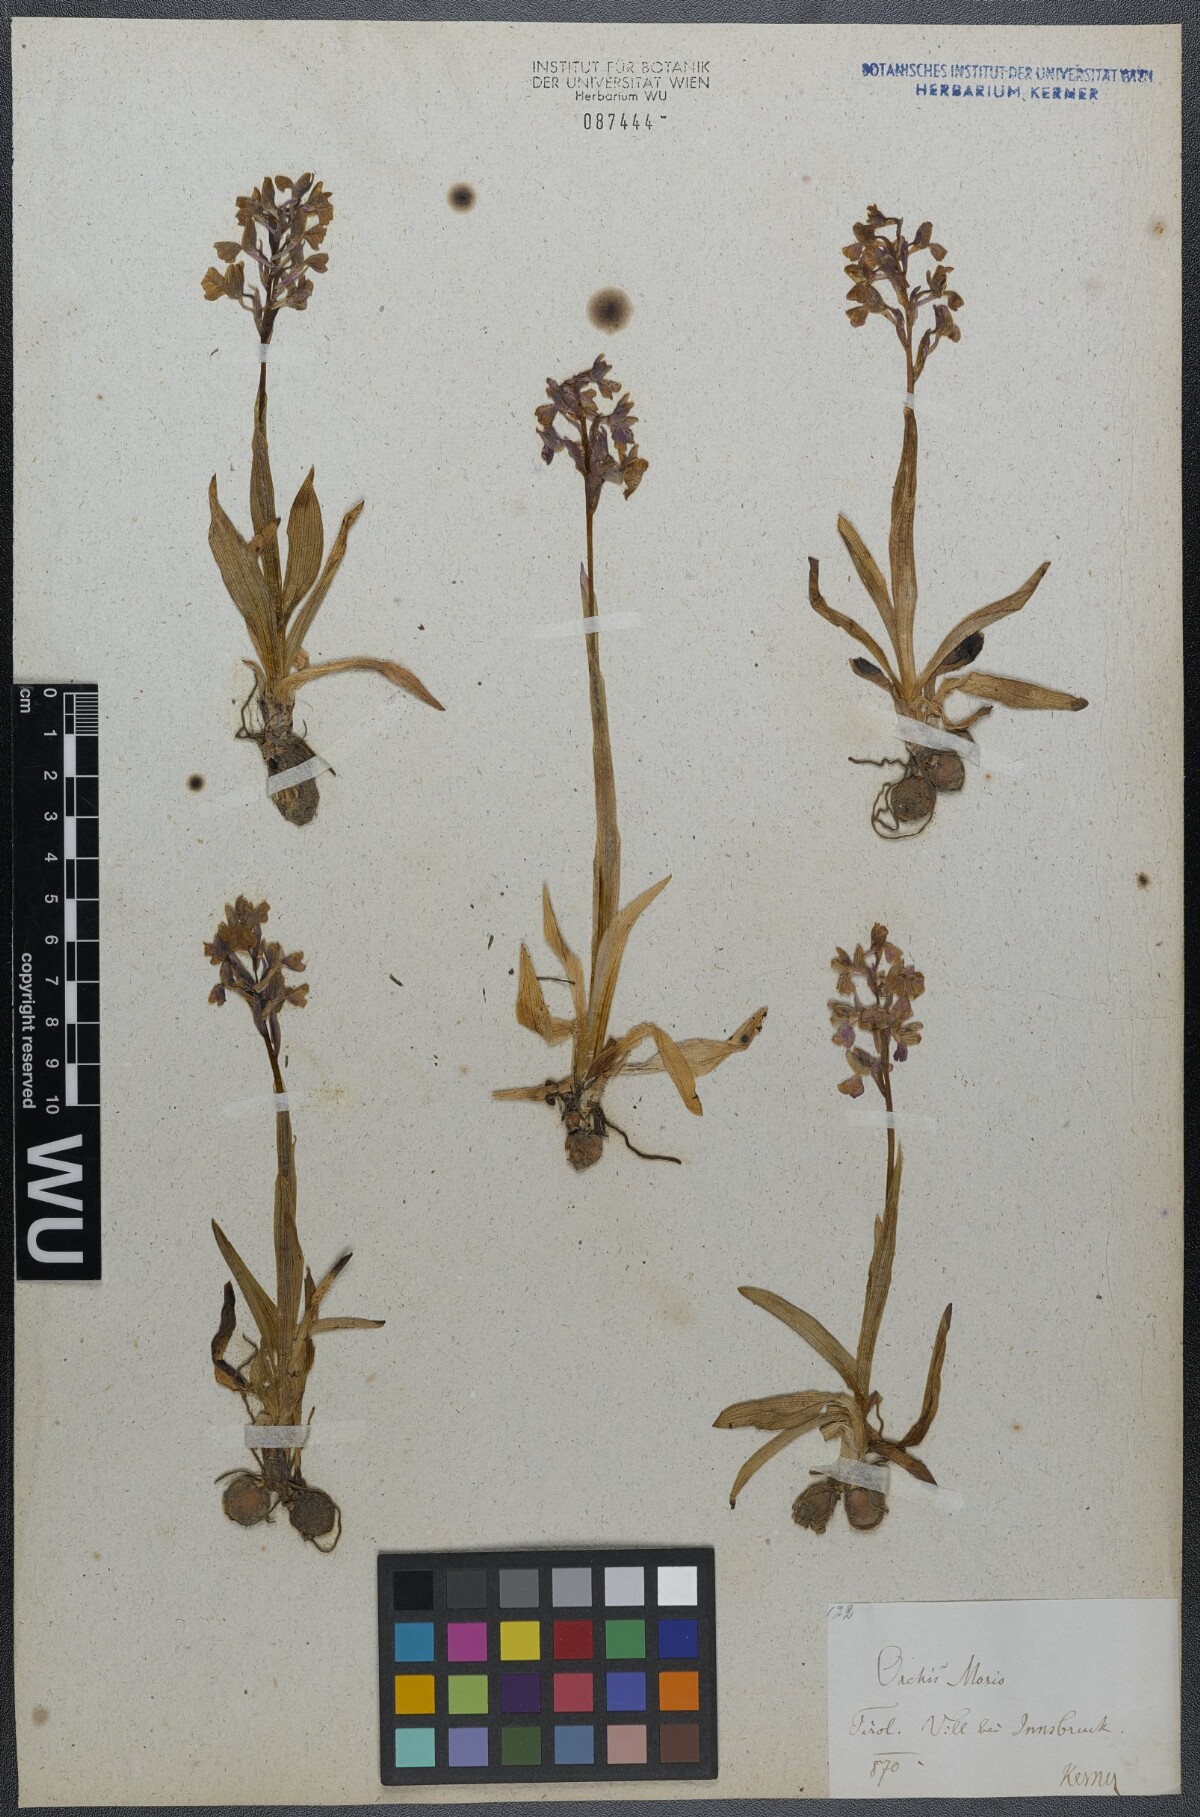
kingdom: Plantae
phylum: Tracheophyta
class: Liliopsida
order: Asparagales
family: Orchidaceae
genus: Anacamptis
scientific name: Anacamptis morio
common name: Green-winged orchid
